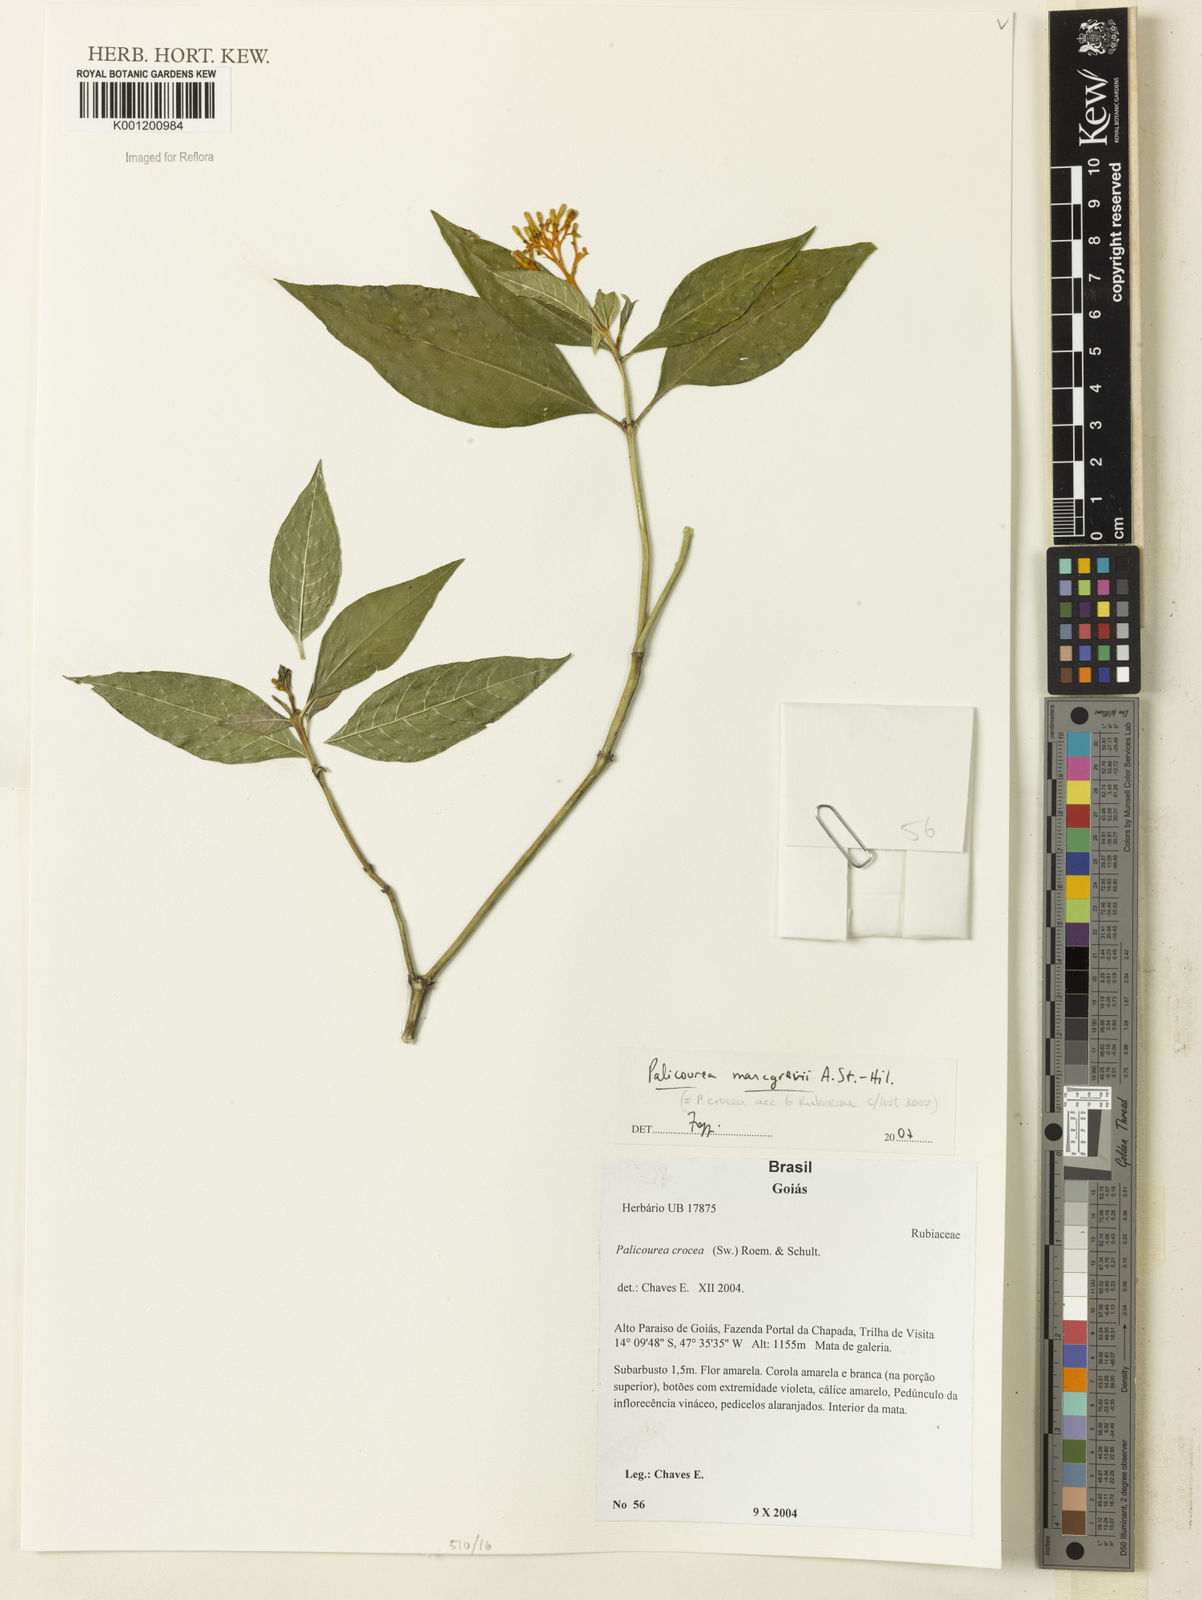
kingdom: Plantae
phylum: Tracheophyta
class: Magnoliopsida
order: Gentianales
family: Rubiaceae
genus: Palicourea
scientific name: Palicourea marcgravii
